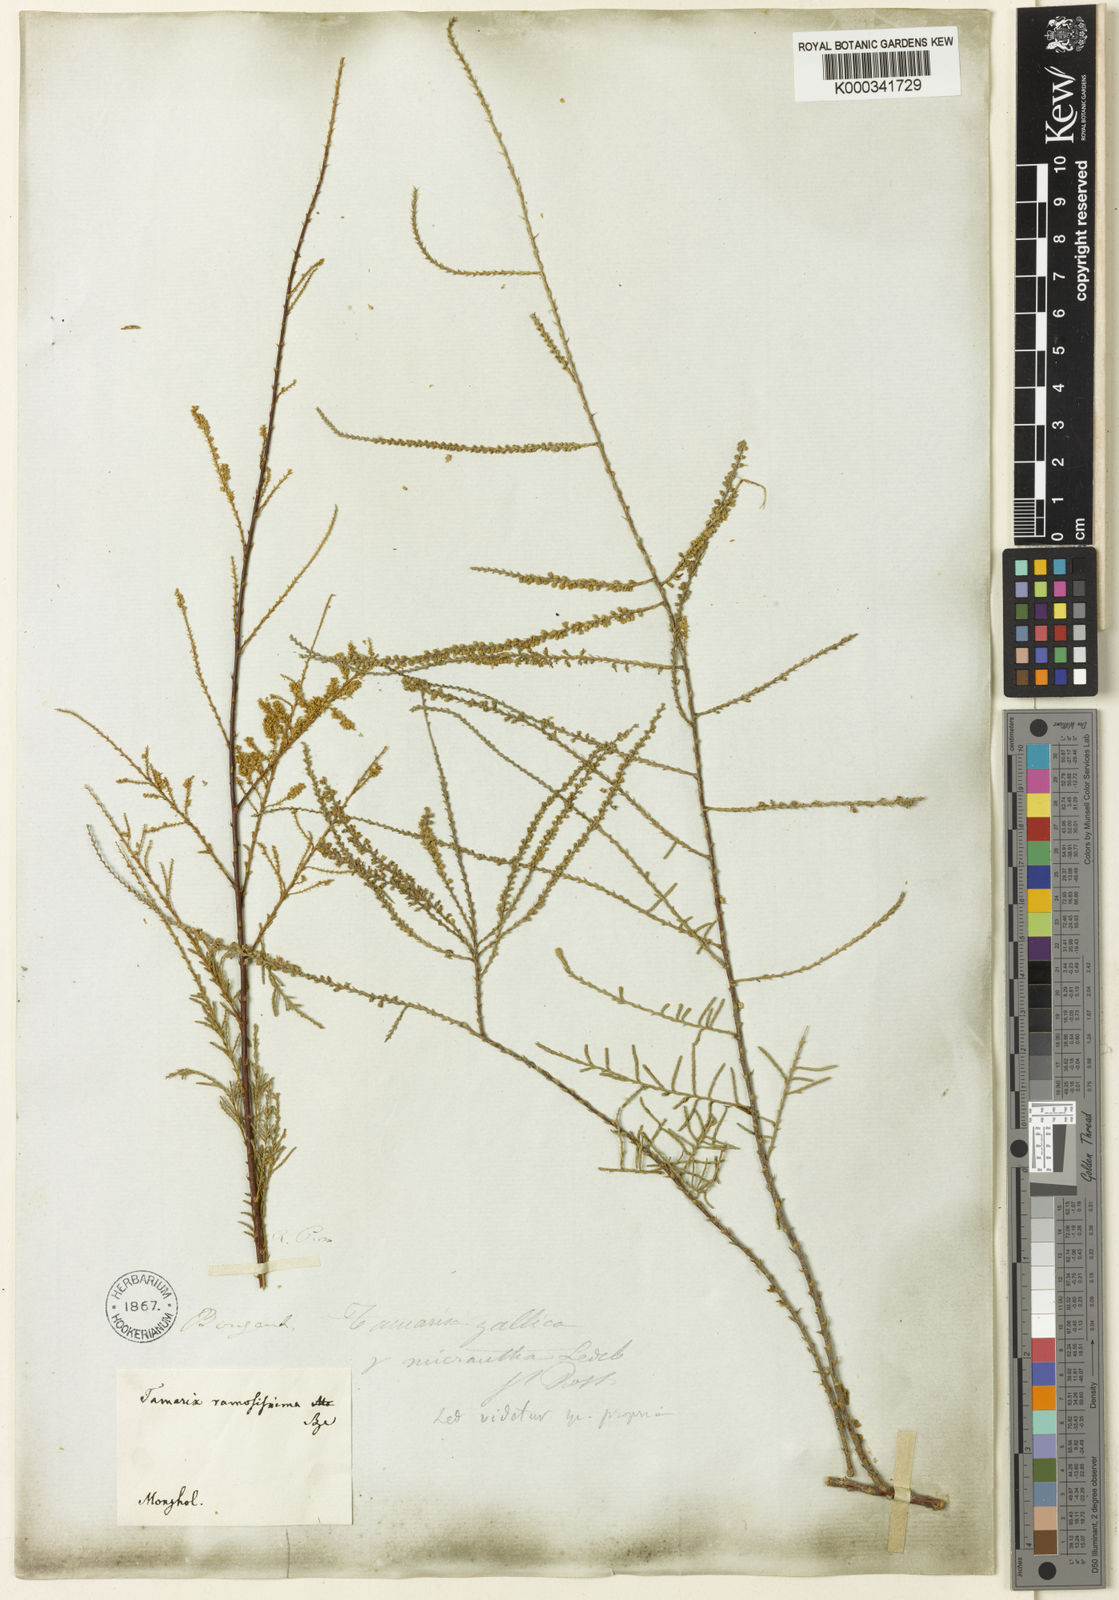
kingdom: Plantae
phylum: Tracheophyta
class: Magnoliopsida
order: Caryophyllales
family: Tamaricaceae
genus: Tamarix
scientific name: Tamarix leptostachya
